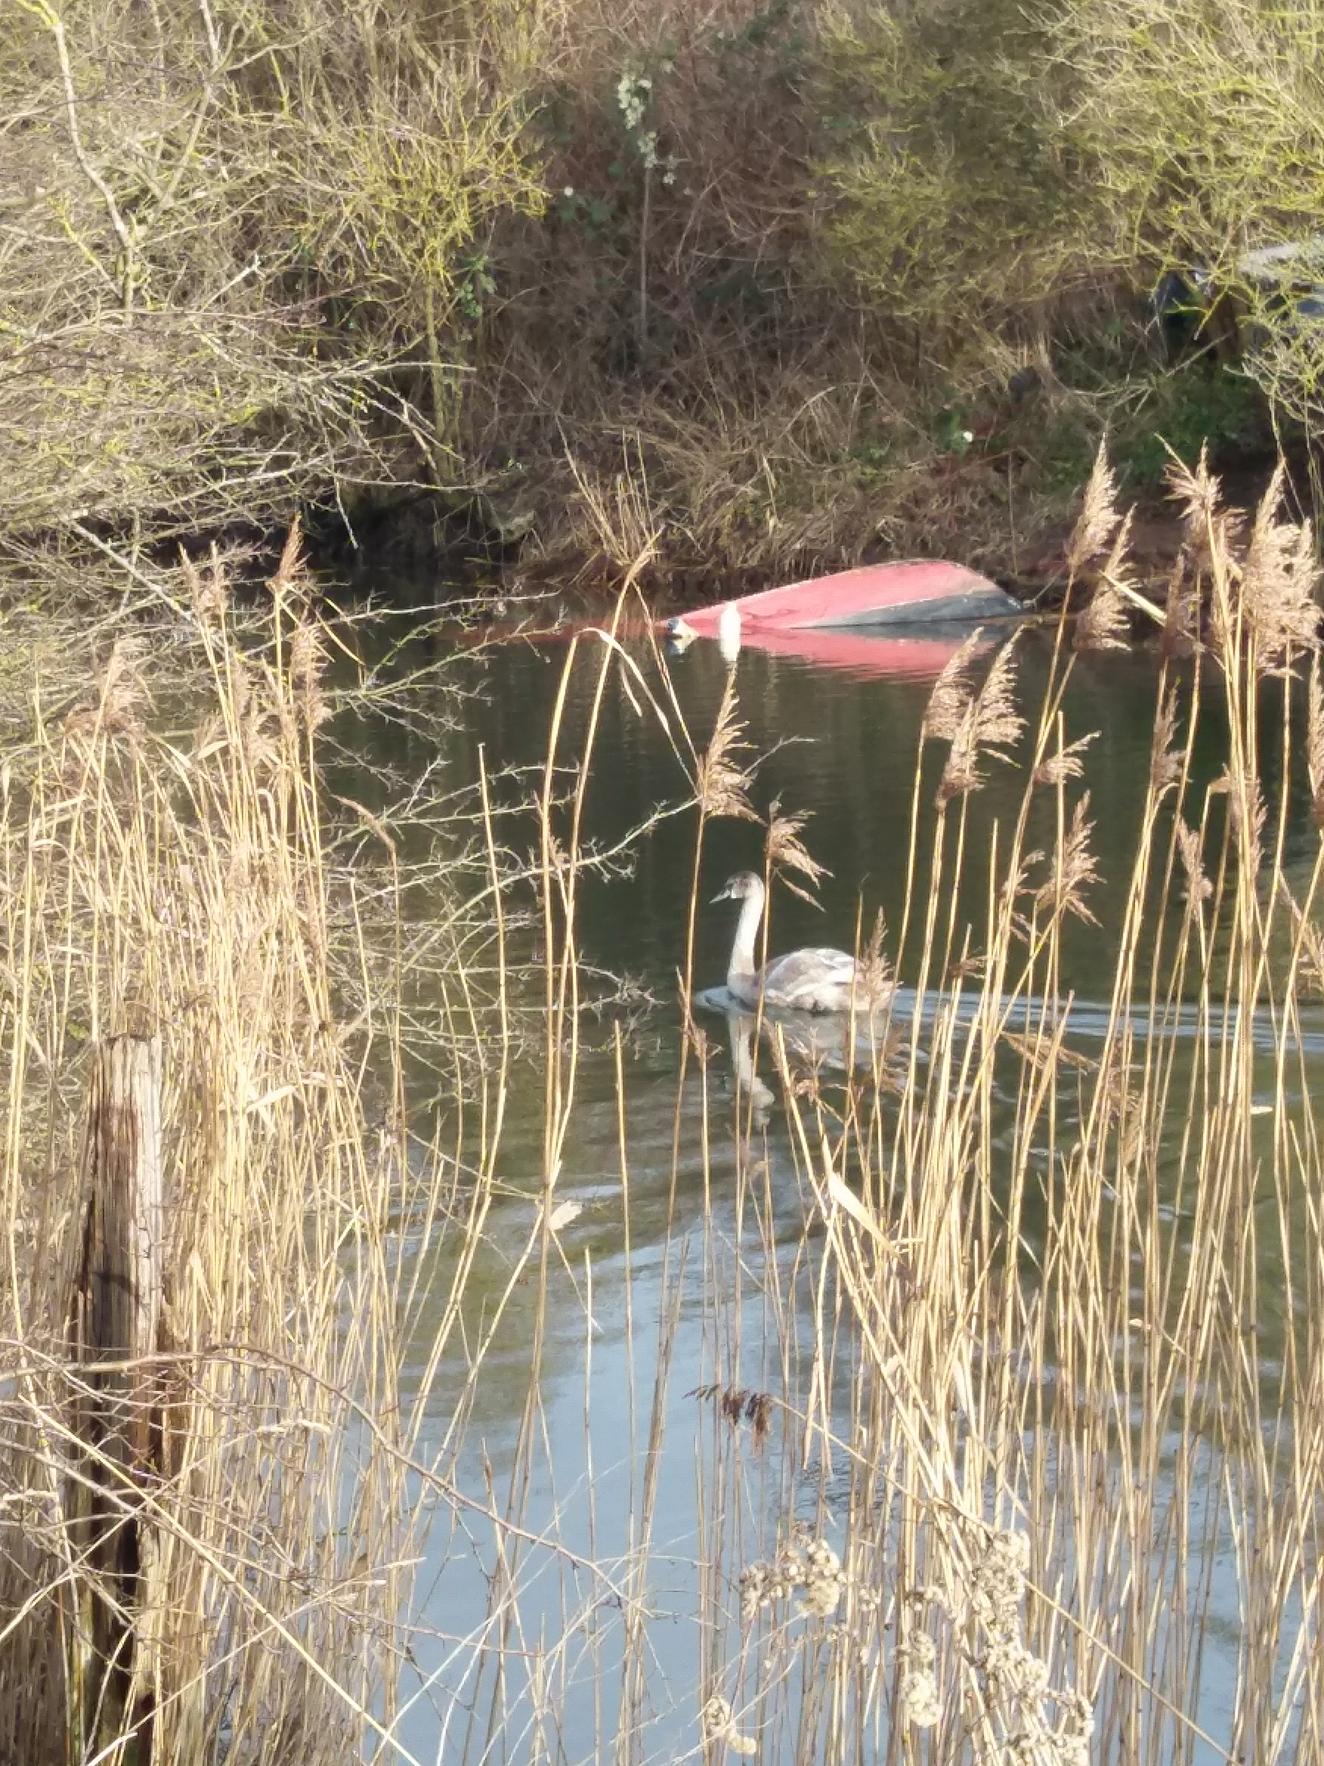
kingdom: Animalia
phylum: Chordata
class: Aves
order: Anseriformes
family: Anatidae
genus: Cygnus
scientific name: Cygnus olor
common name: Knopsvane
